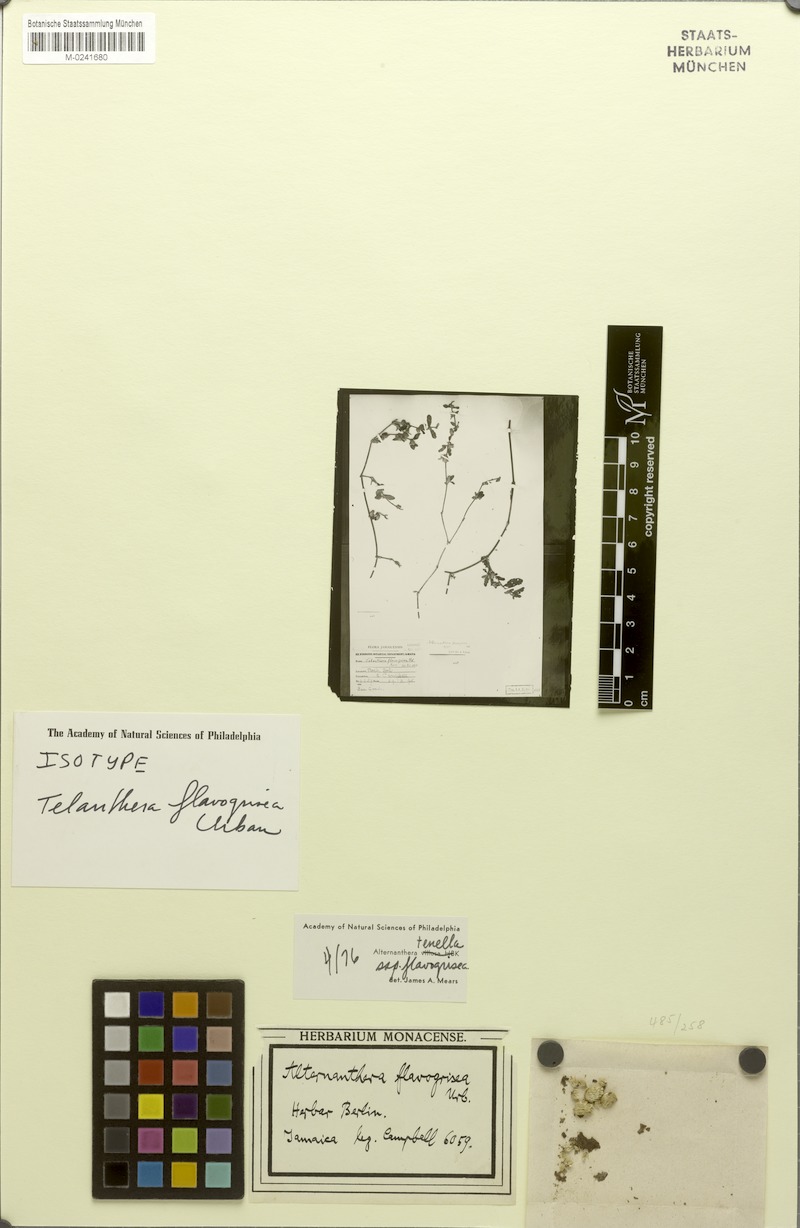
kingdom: Plantae
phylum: Tracheophyta
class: Magnoliopsida
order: Caryophyllales
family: Amaranthaceae
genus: Alternanthera
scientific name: Alternanthera halimifolia
